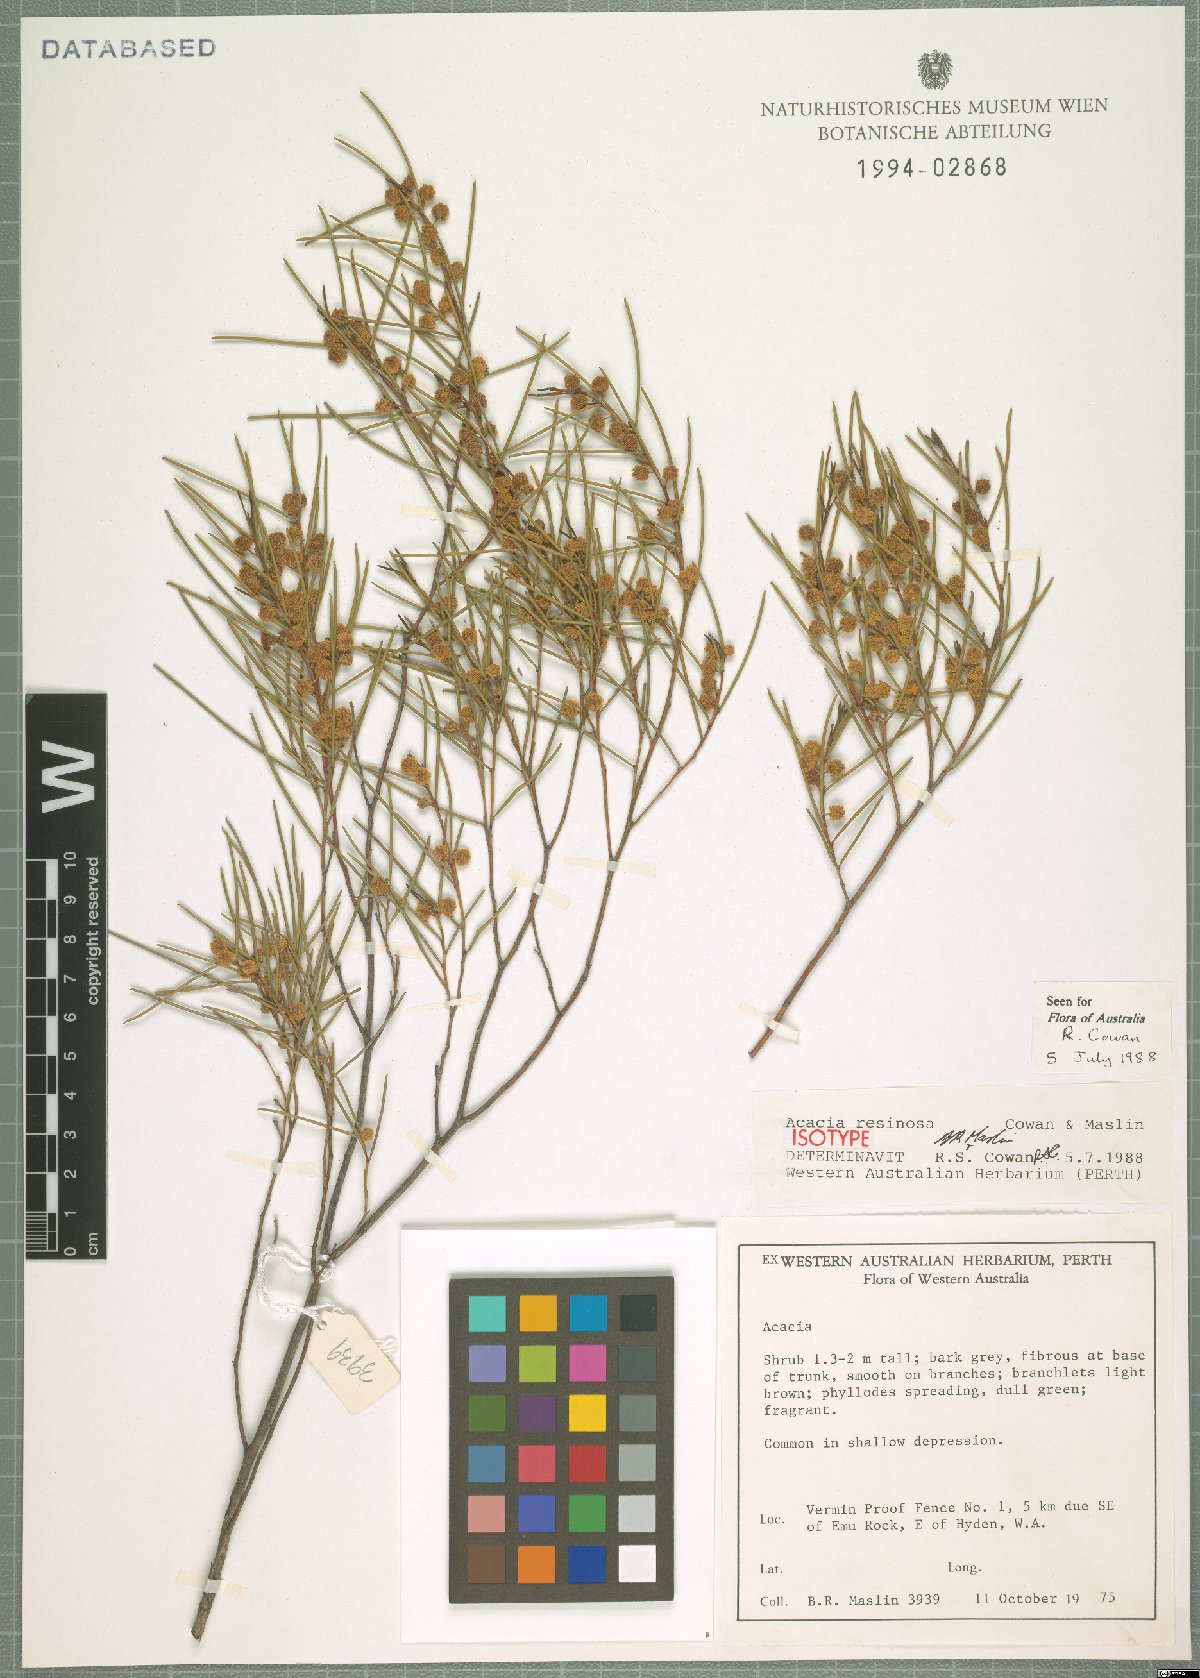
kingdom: Plantae
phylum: Tracheophyta
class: Magnoliopsida
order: Fabales
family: Fabaceae
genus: Acacia
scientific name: Acacia resinosa
